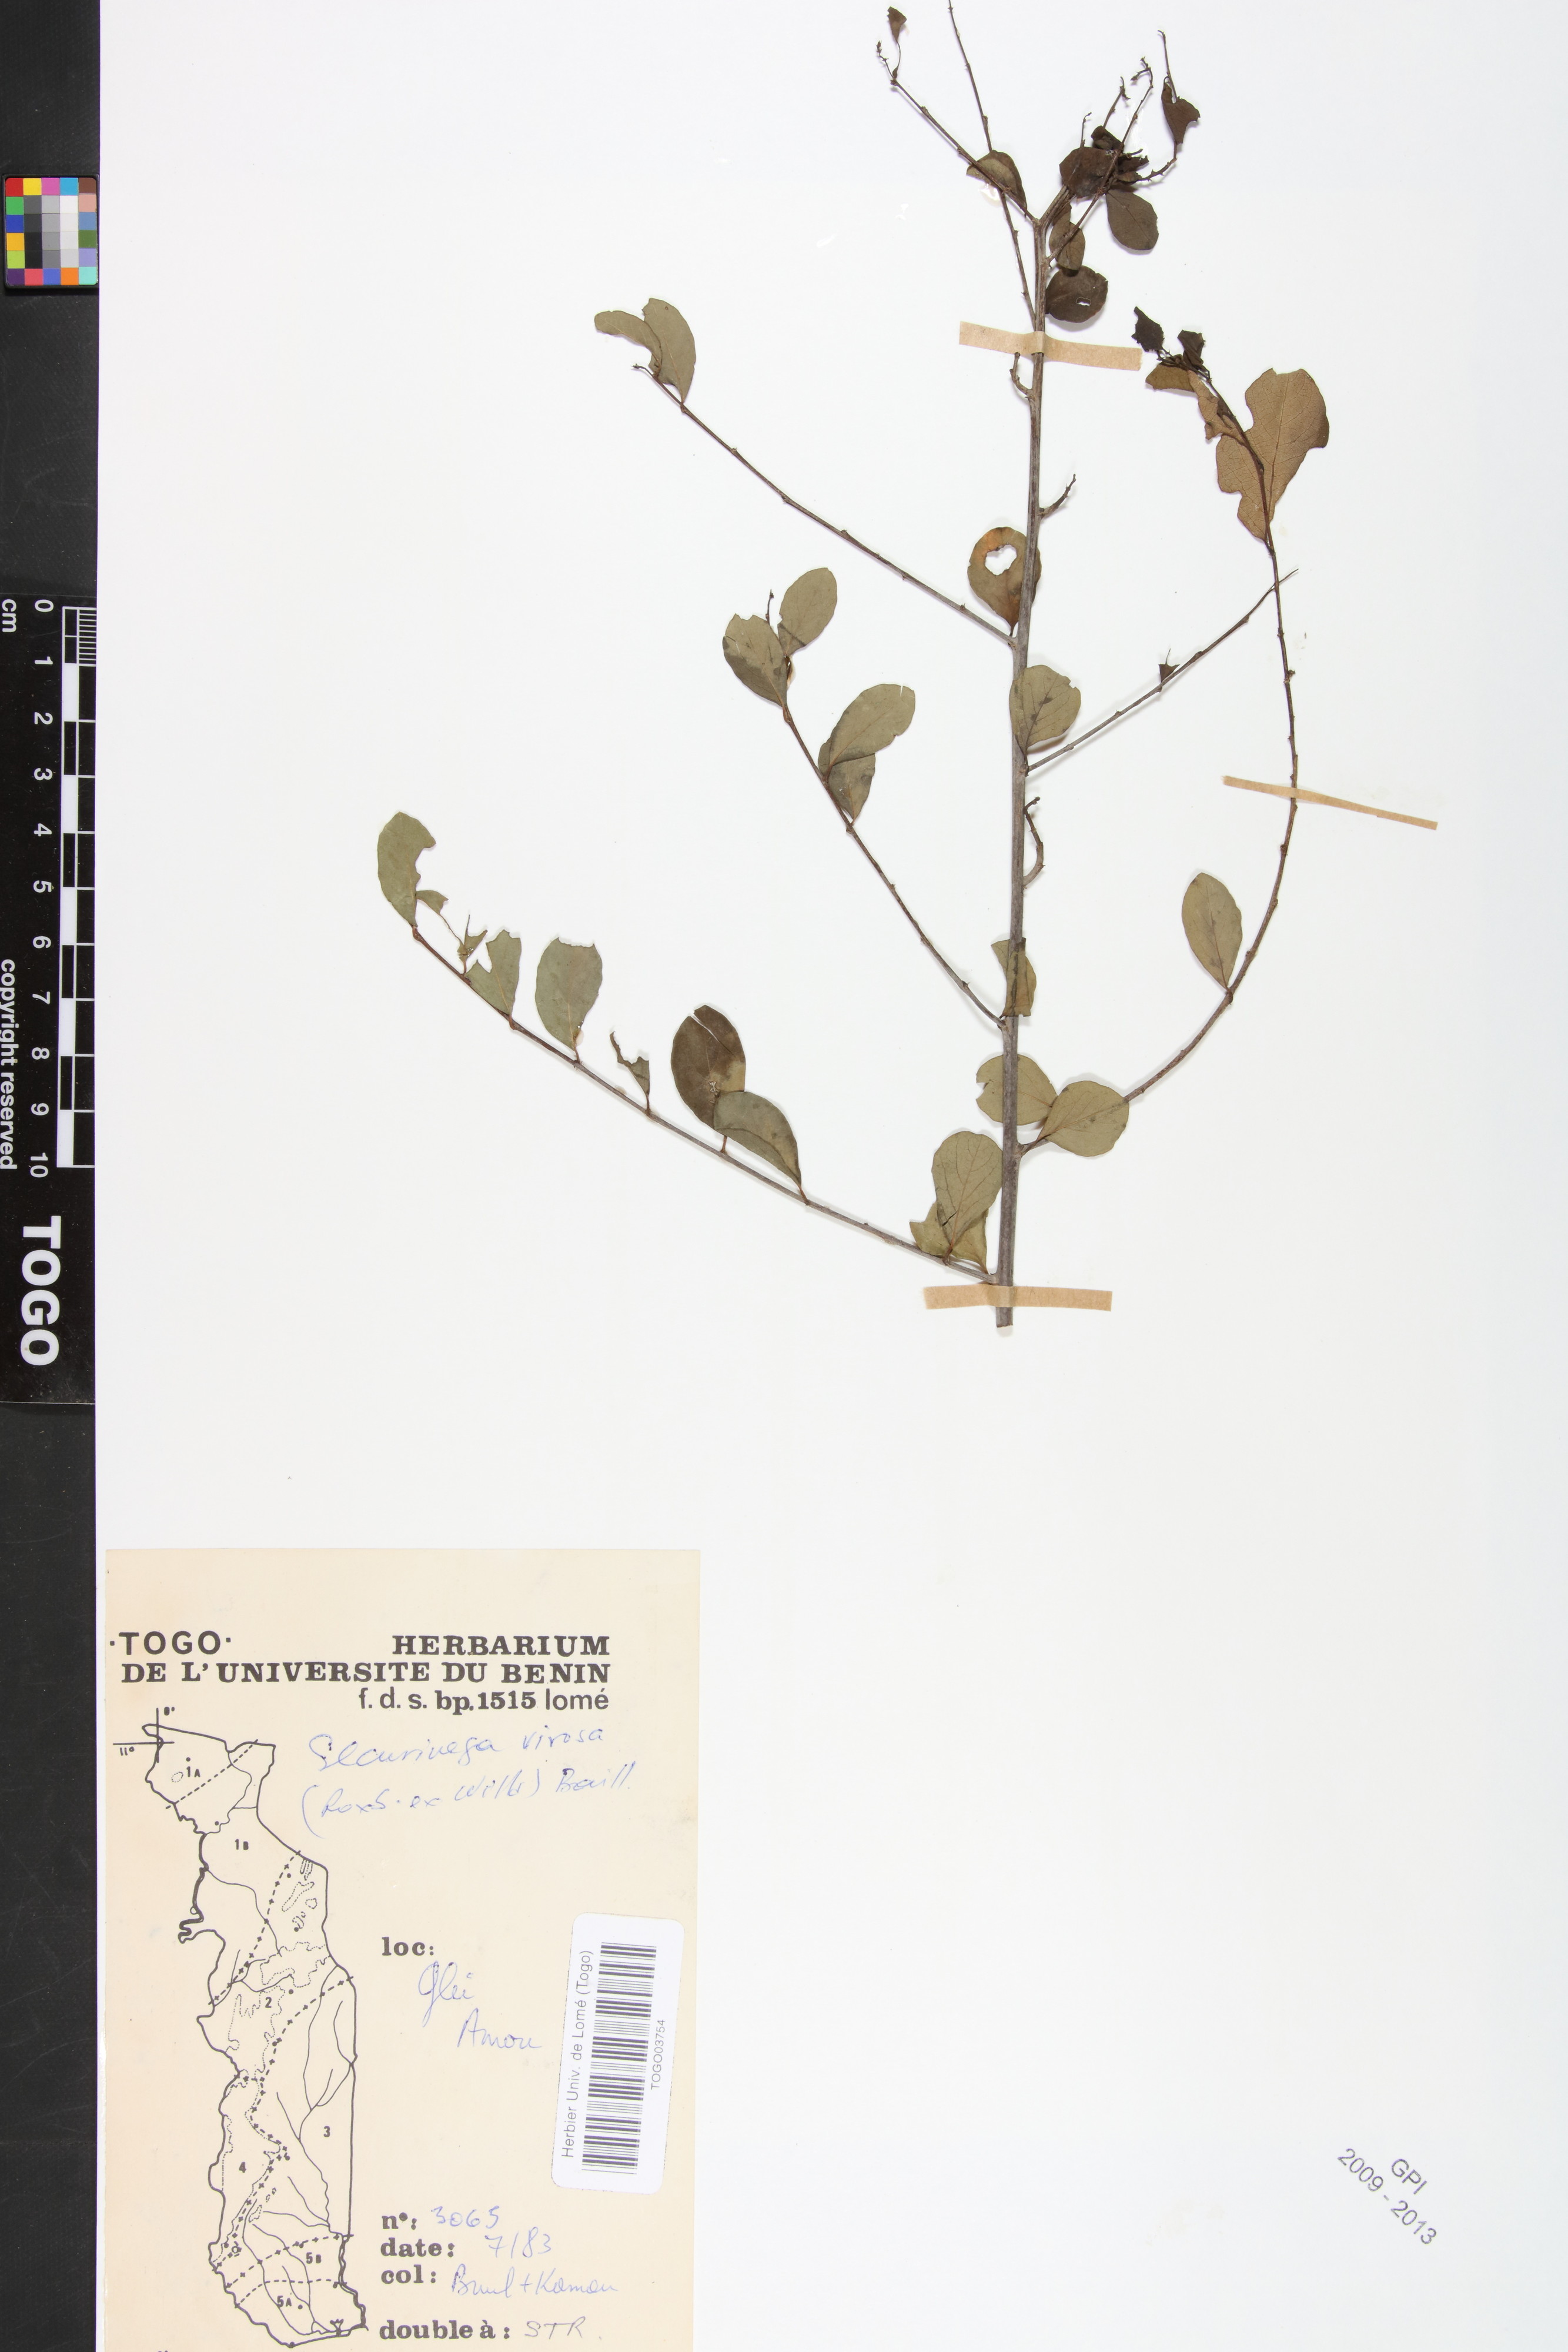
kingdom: Plantae
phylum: Tracheophyta
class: Magnoliopsida
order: Malpighiales
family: Phyllanthaceae
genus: Flueggea
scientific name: Flueggea virosa
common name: Common bushweed
